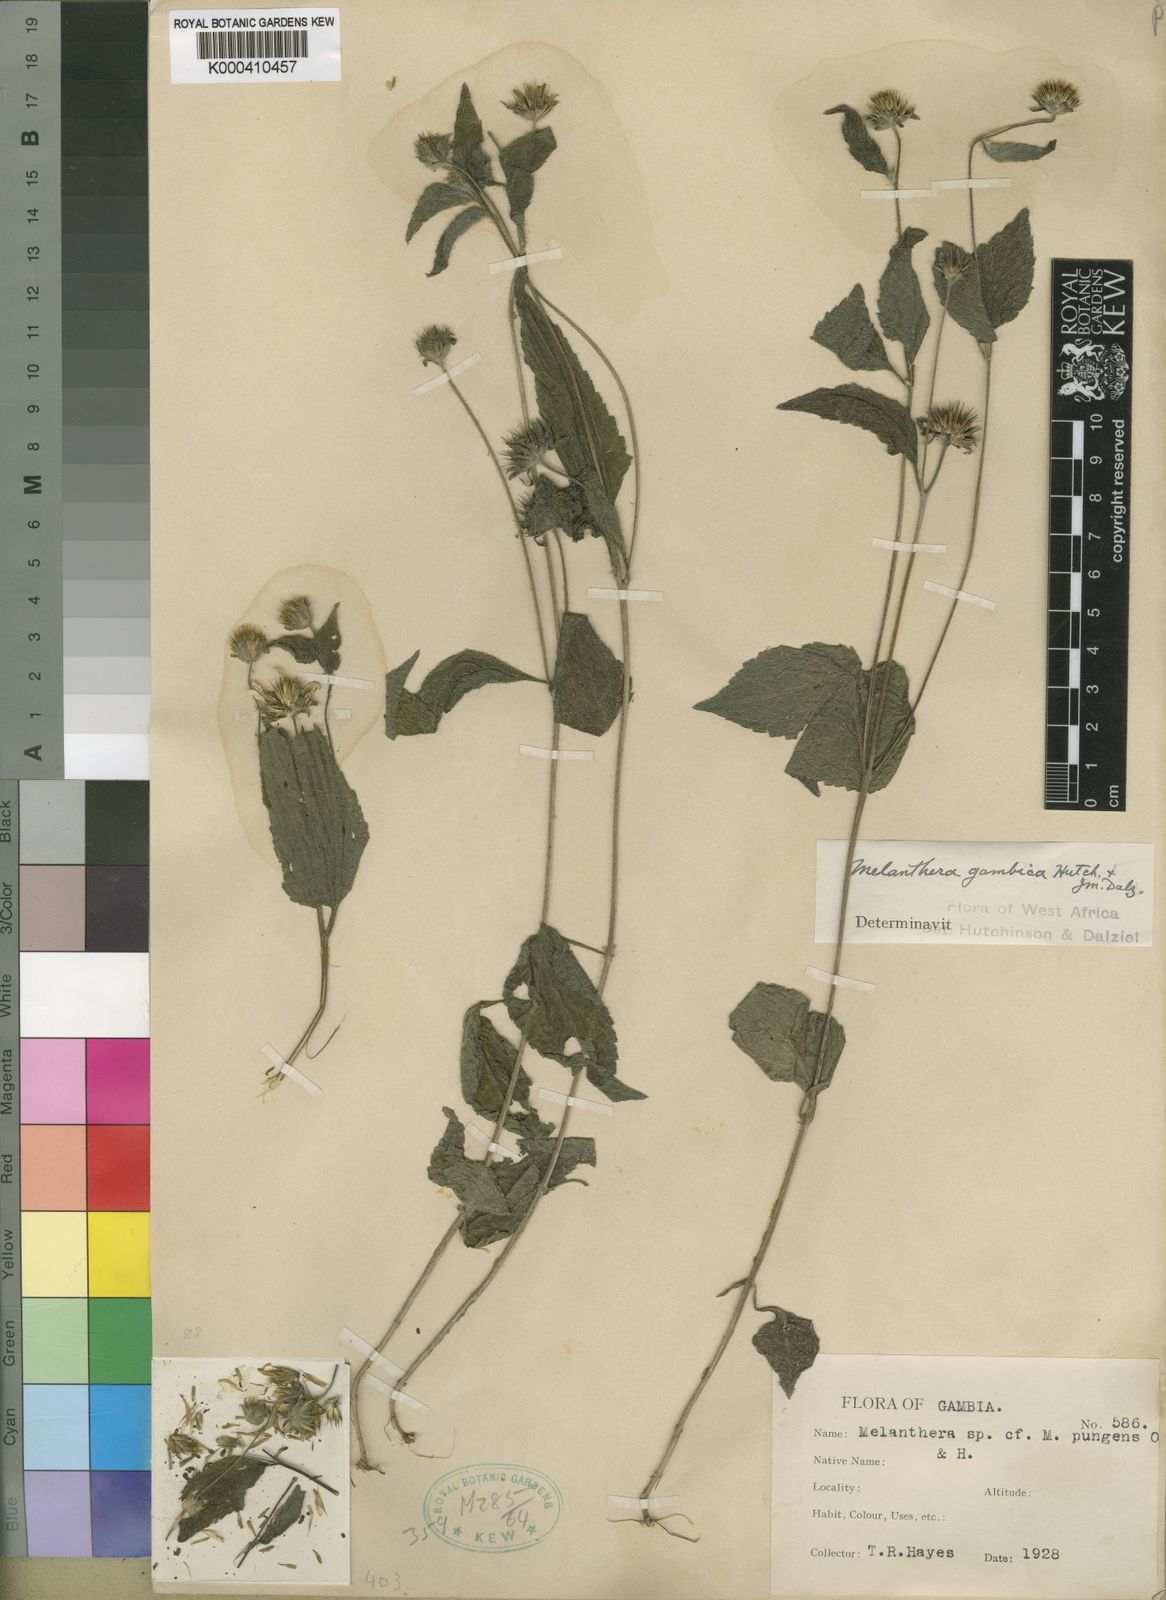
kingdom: Plantae
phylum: Tracheophyta
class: Magnoliopsida
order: Asterales
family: Asteraceae
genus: Lipotriche
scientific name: Lipotriche gambica
